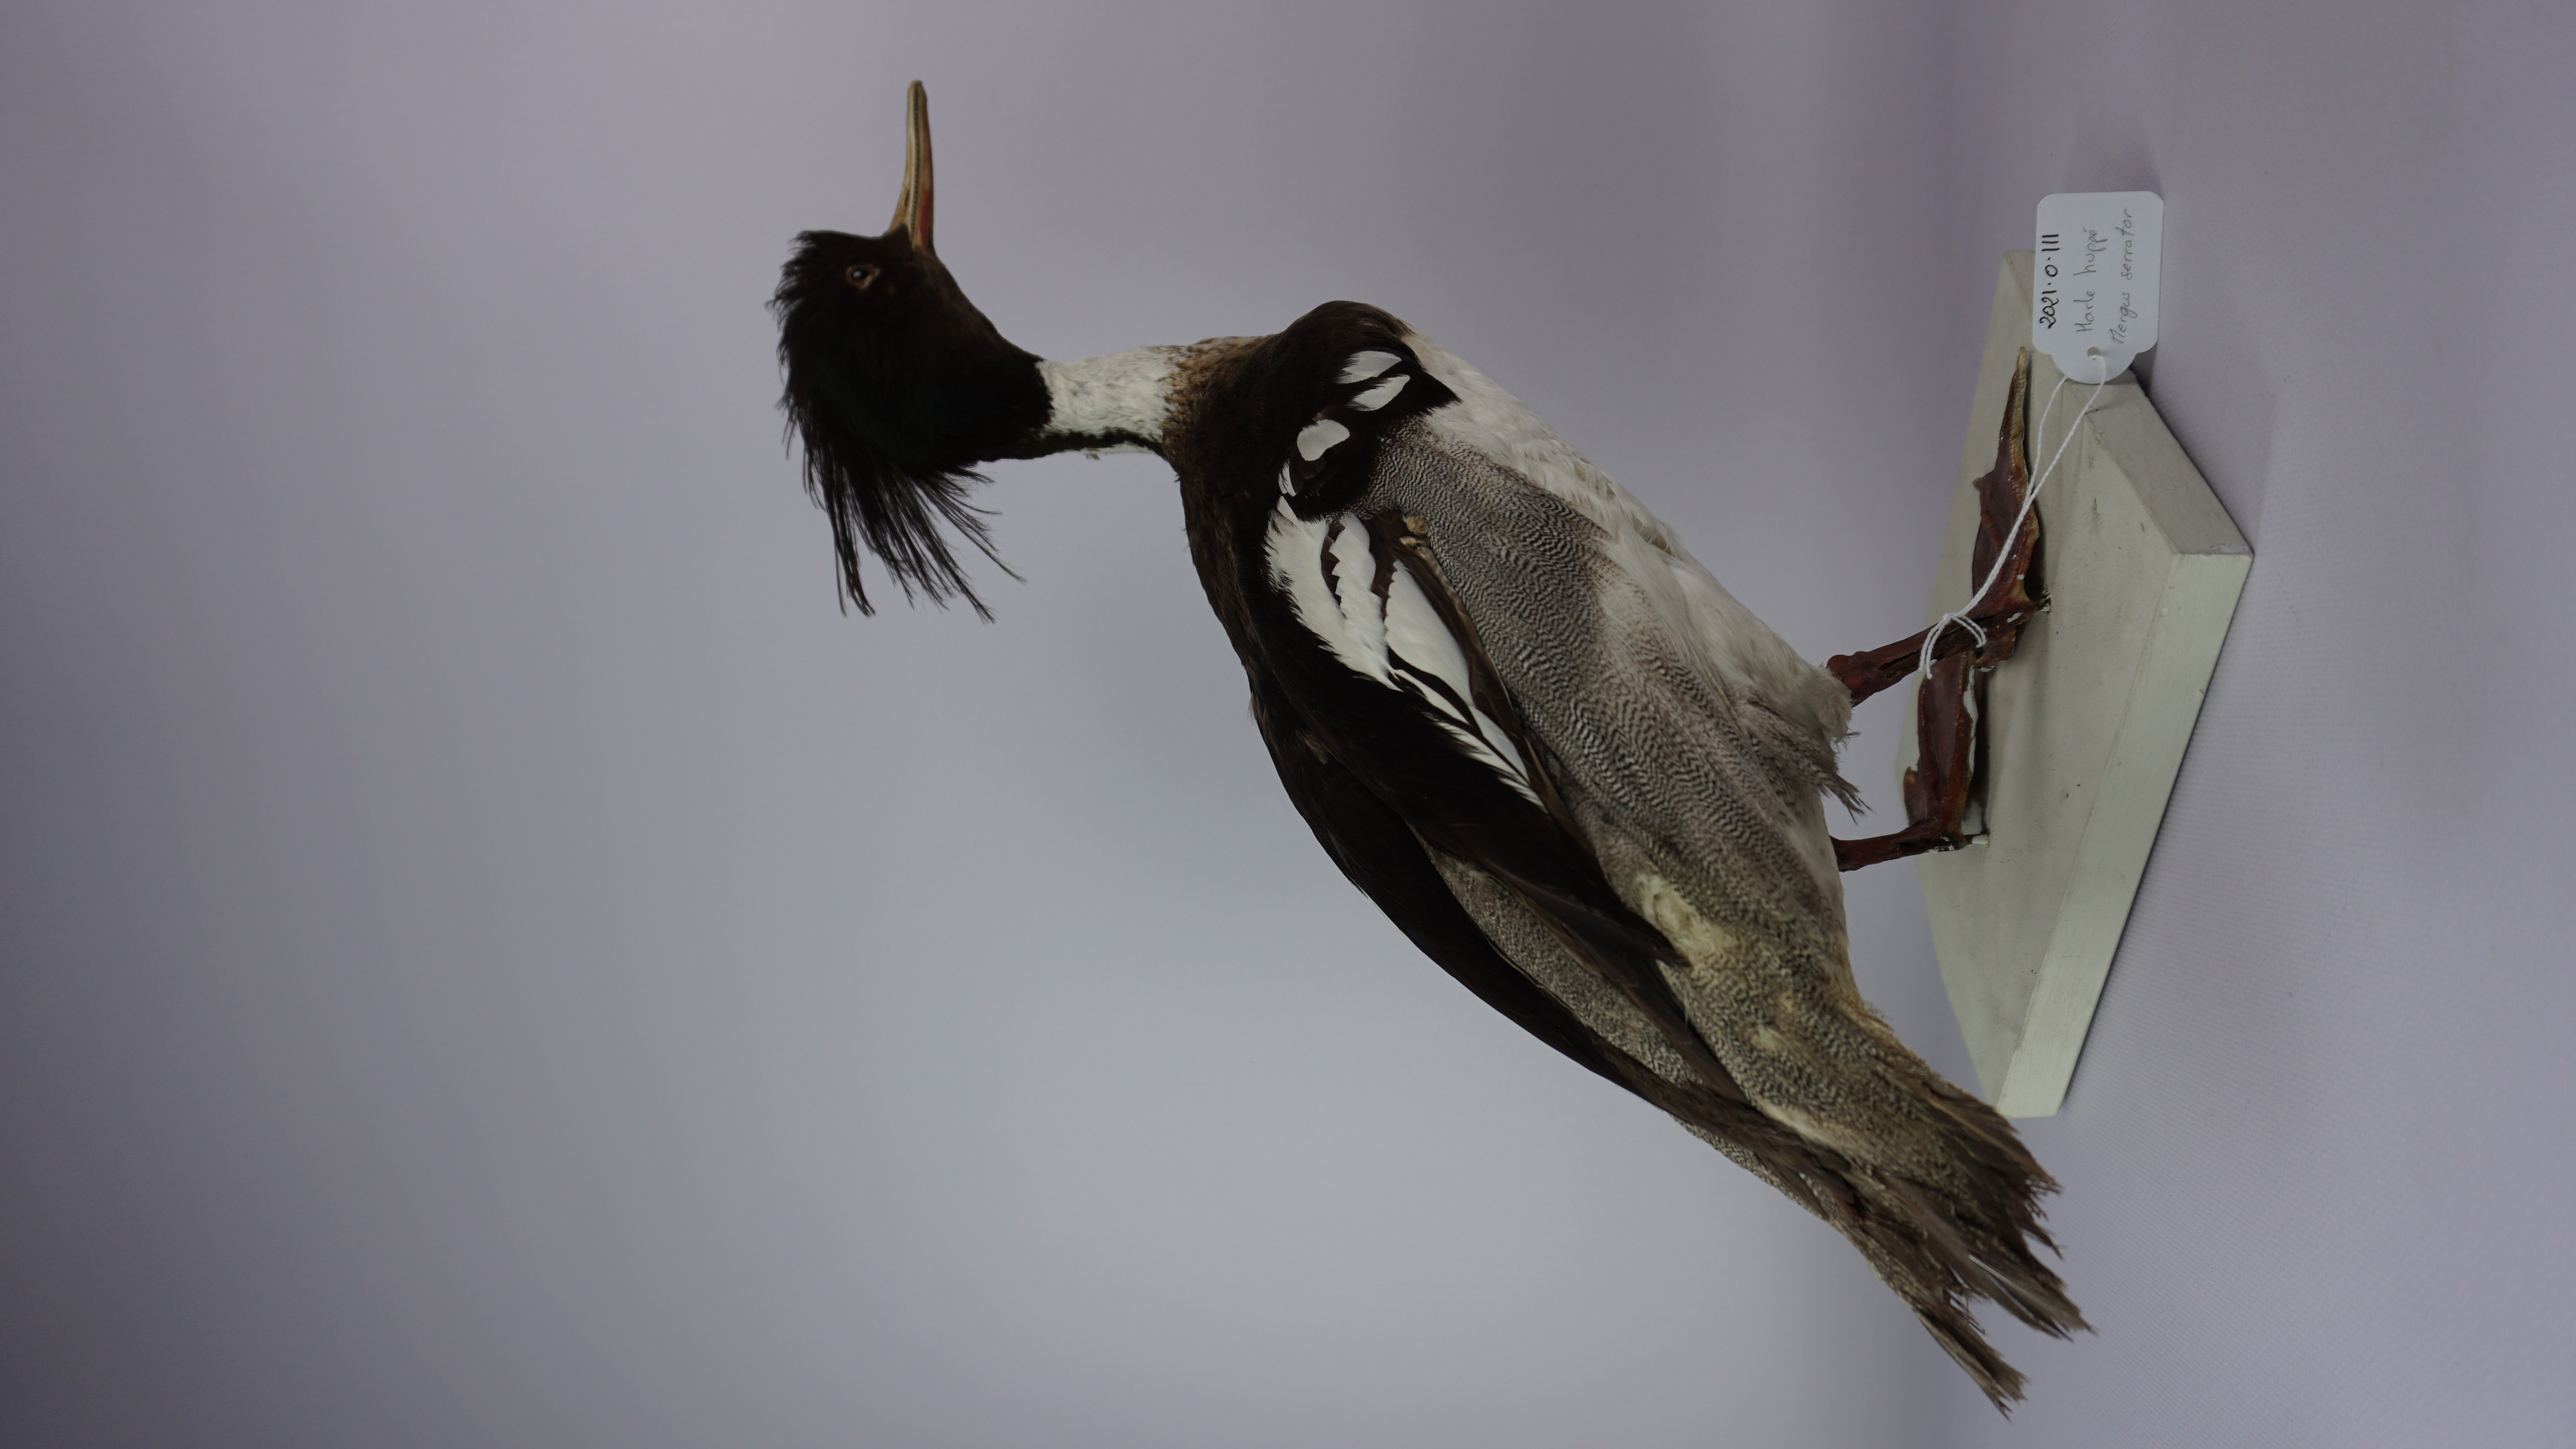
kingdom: Animalia
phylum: Chordata
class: Aves
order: Anseriformes
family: Anatidae
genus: Mergus
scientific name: Mergus serrator
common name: Red-breasted merganser
